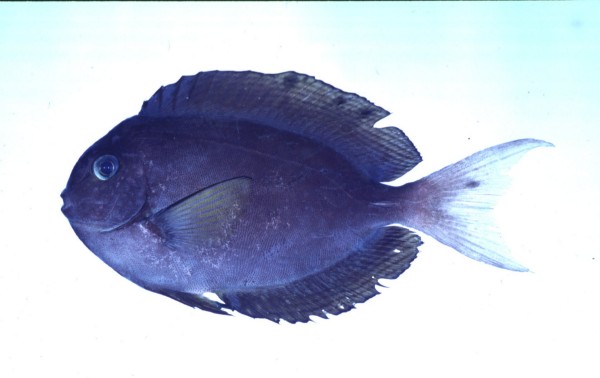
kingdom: Animalia
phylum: Chordata
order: Perciformes
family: Acanthuridae
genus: Acanthurus
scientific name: Acanthurus thompsoni
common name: Chocolate surgeonfish
